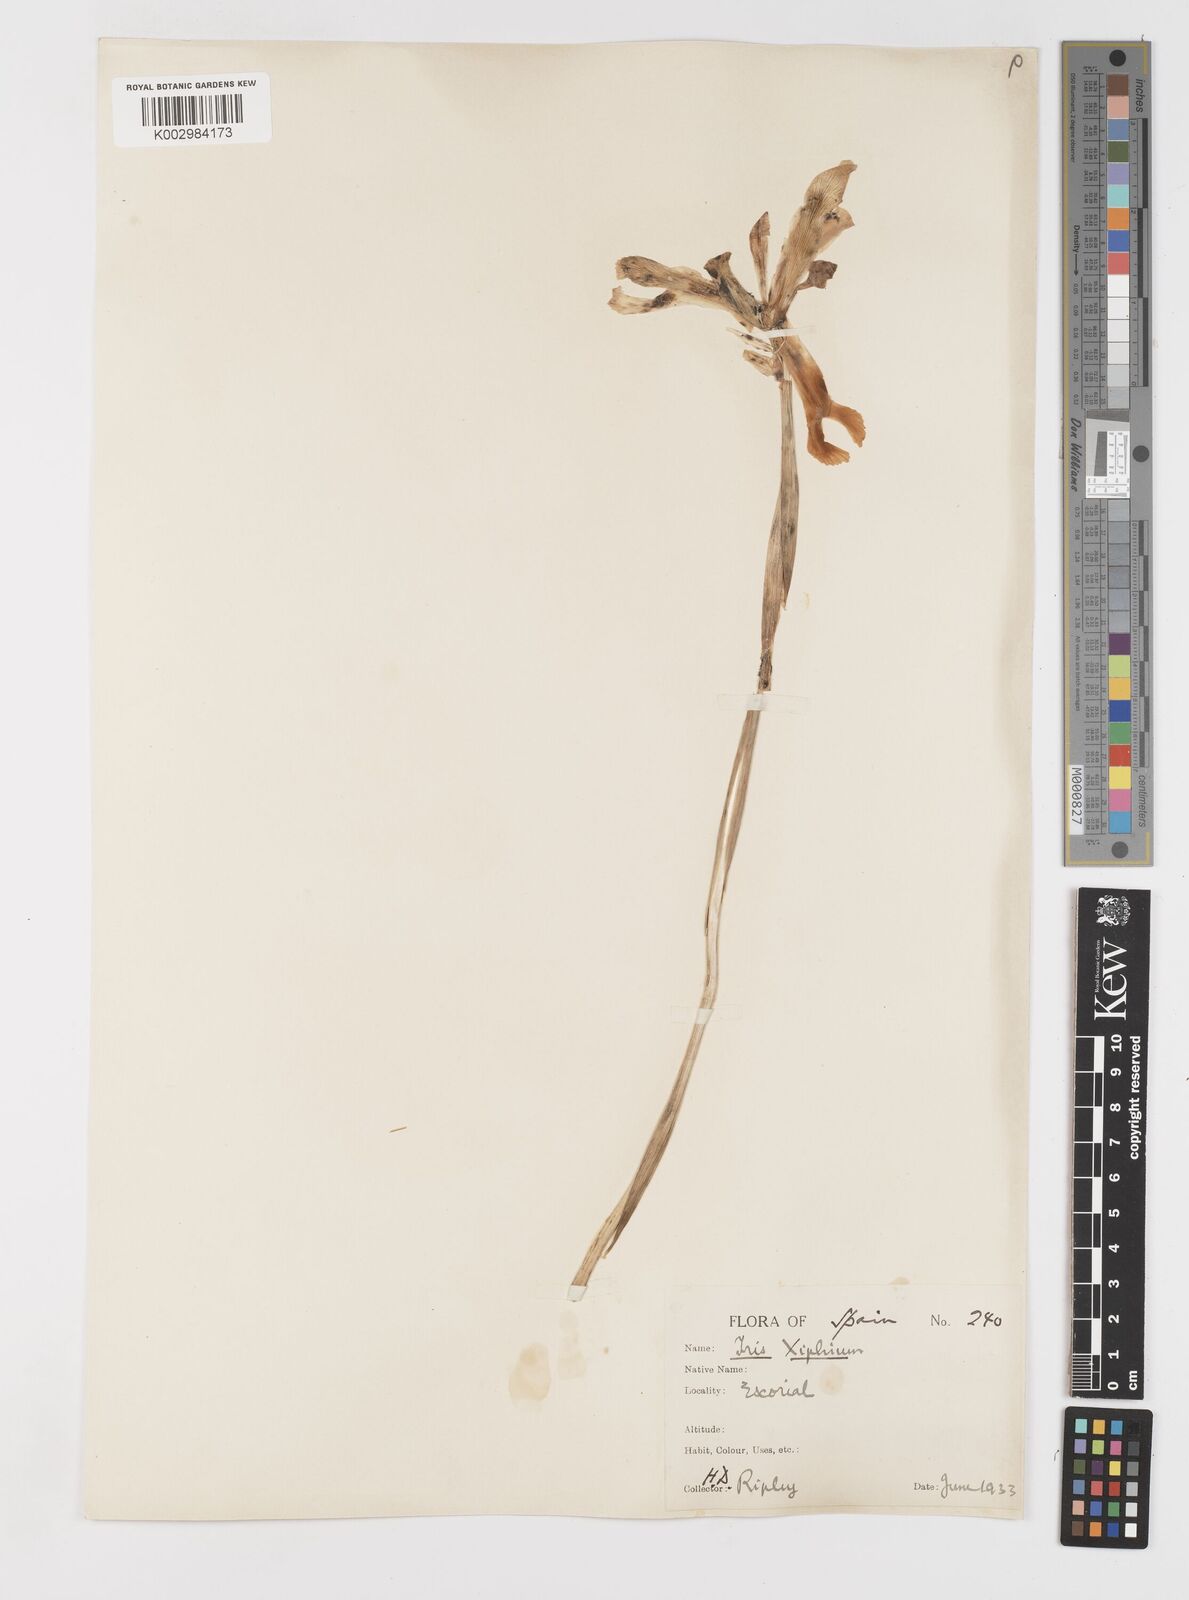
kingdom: Plantae
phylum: Tracheophyta
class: Liliopsida
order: Asparagales
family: Iridaceae
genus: Iris
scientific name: Iris xiphium
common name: Spanish iris
